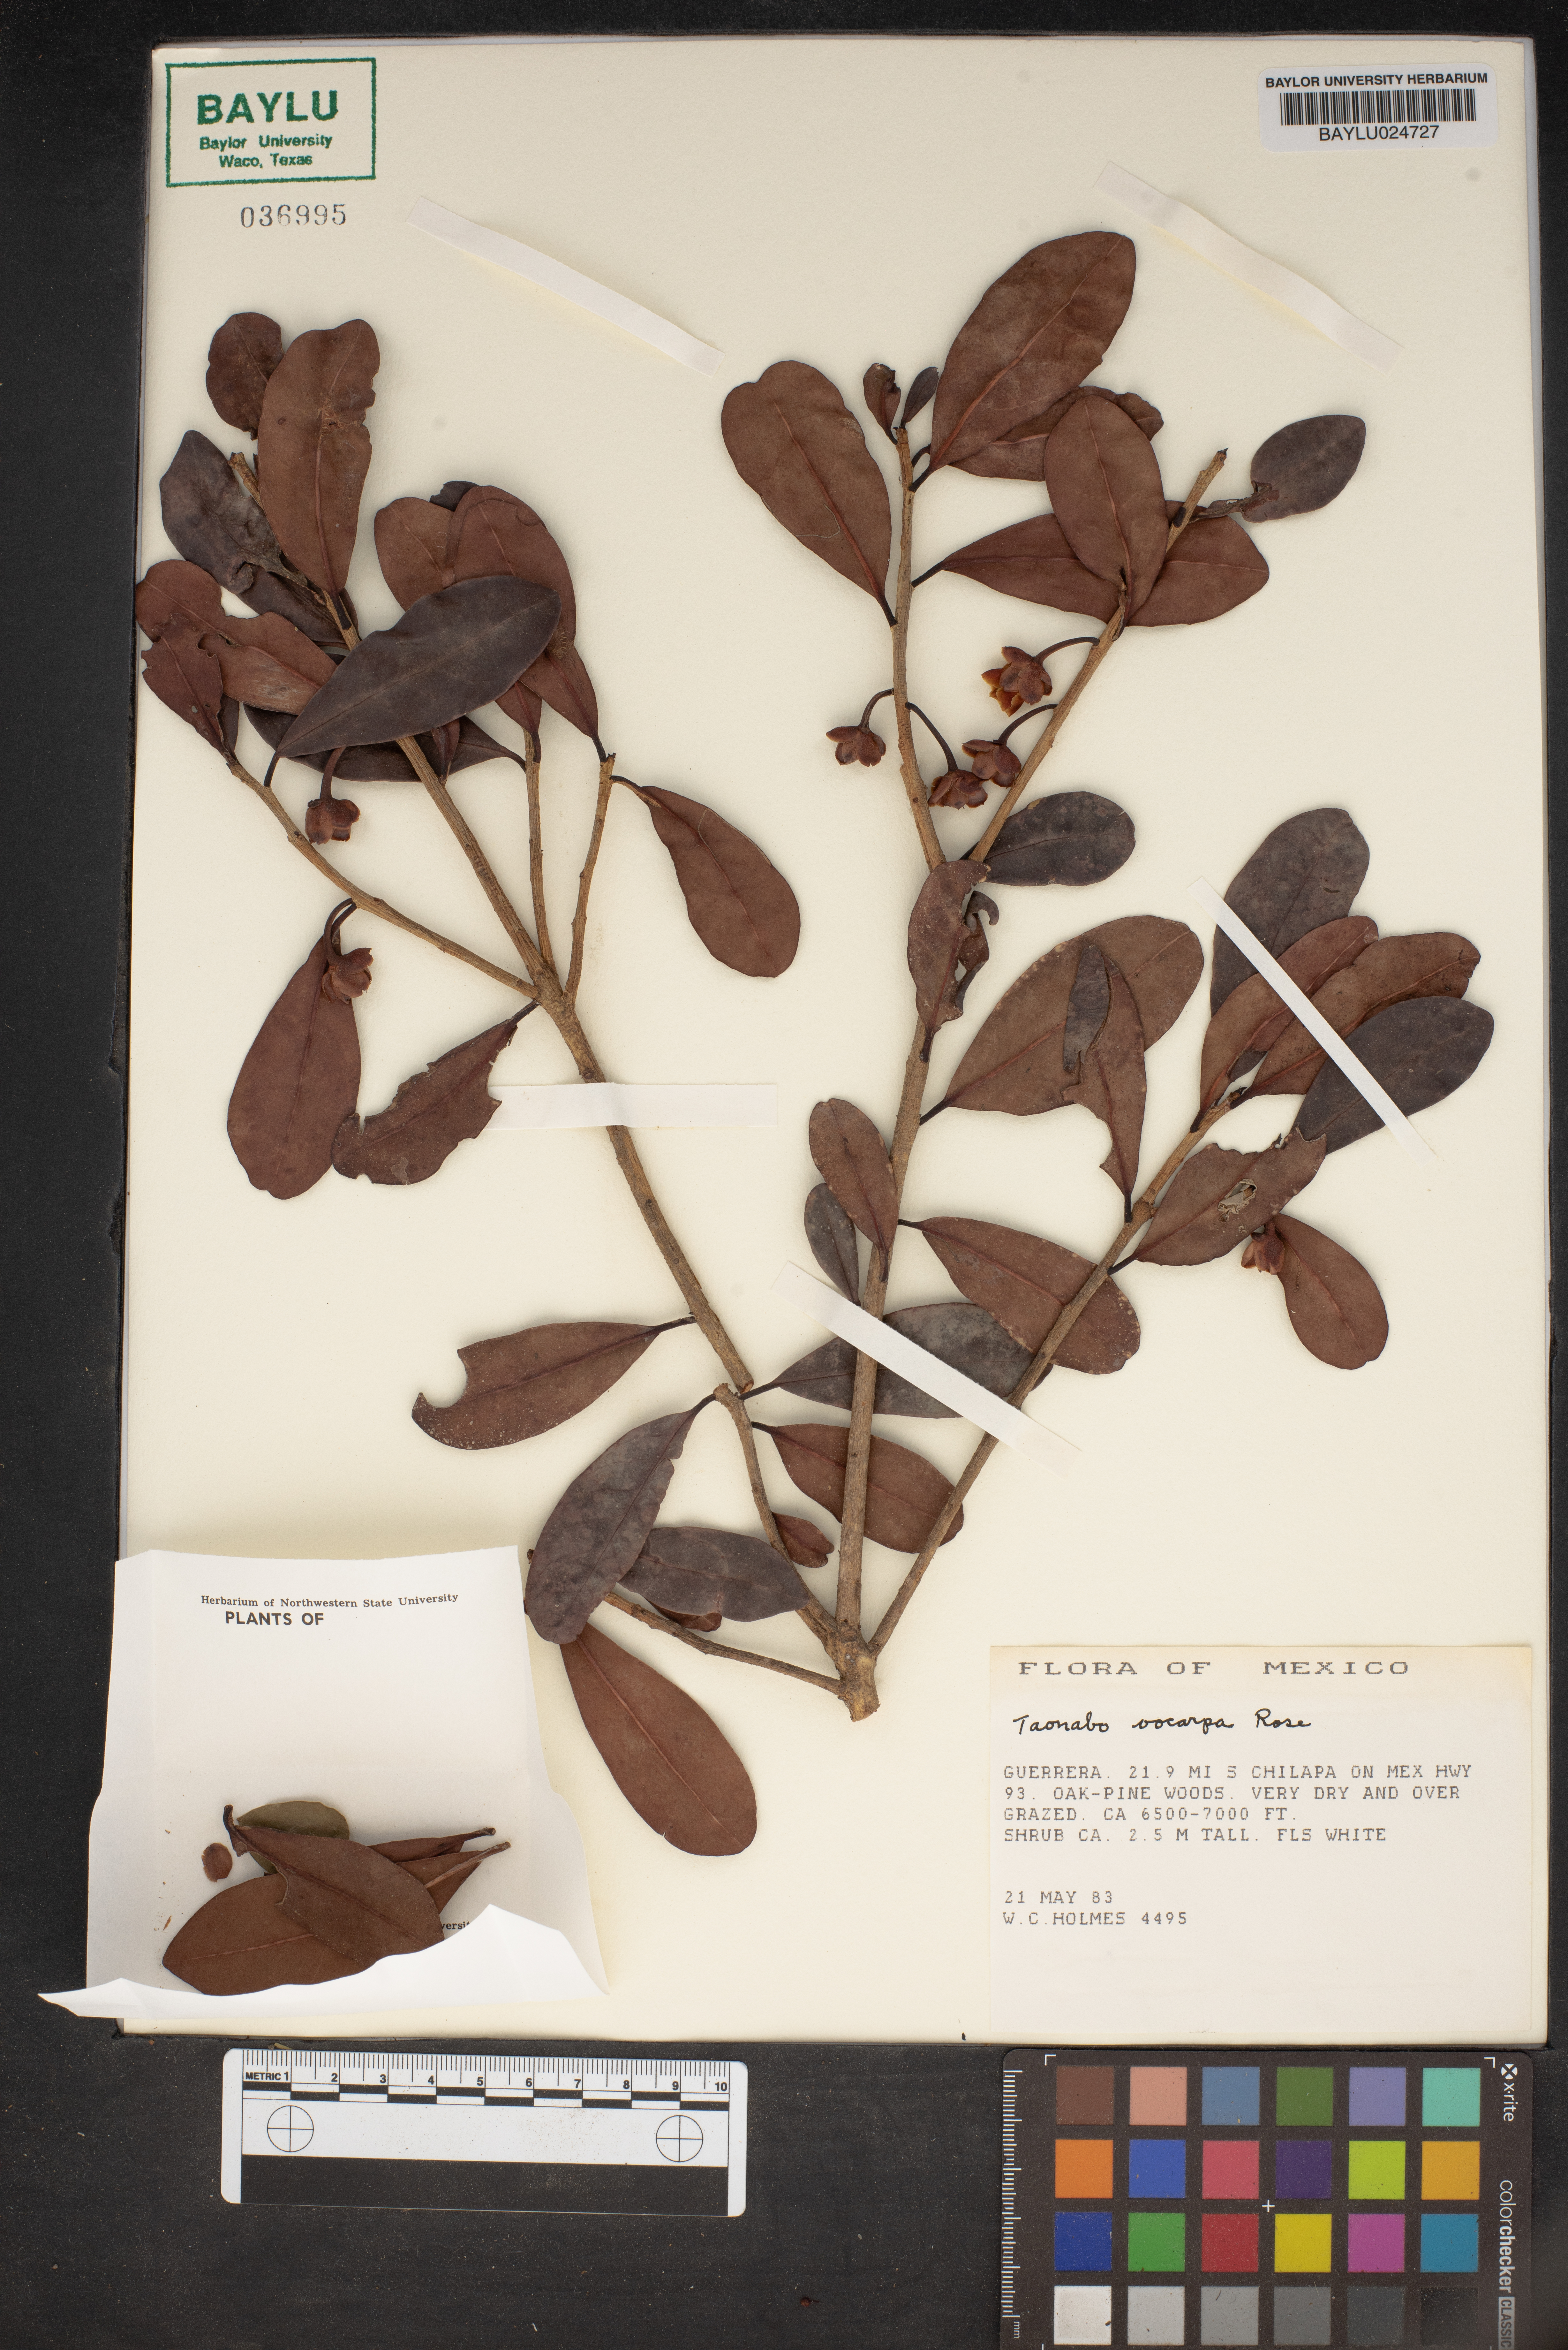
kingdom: Plantae
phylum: Tracheophyta
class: Magnoliopsida
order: Ericales
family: Pentaphylacaceae
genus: Ternstroemia
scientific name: Ternstroemia tepezapote
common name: Copey vera
